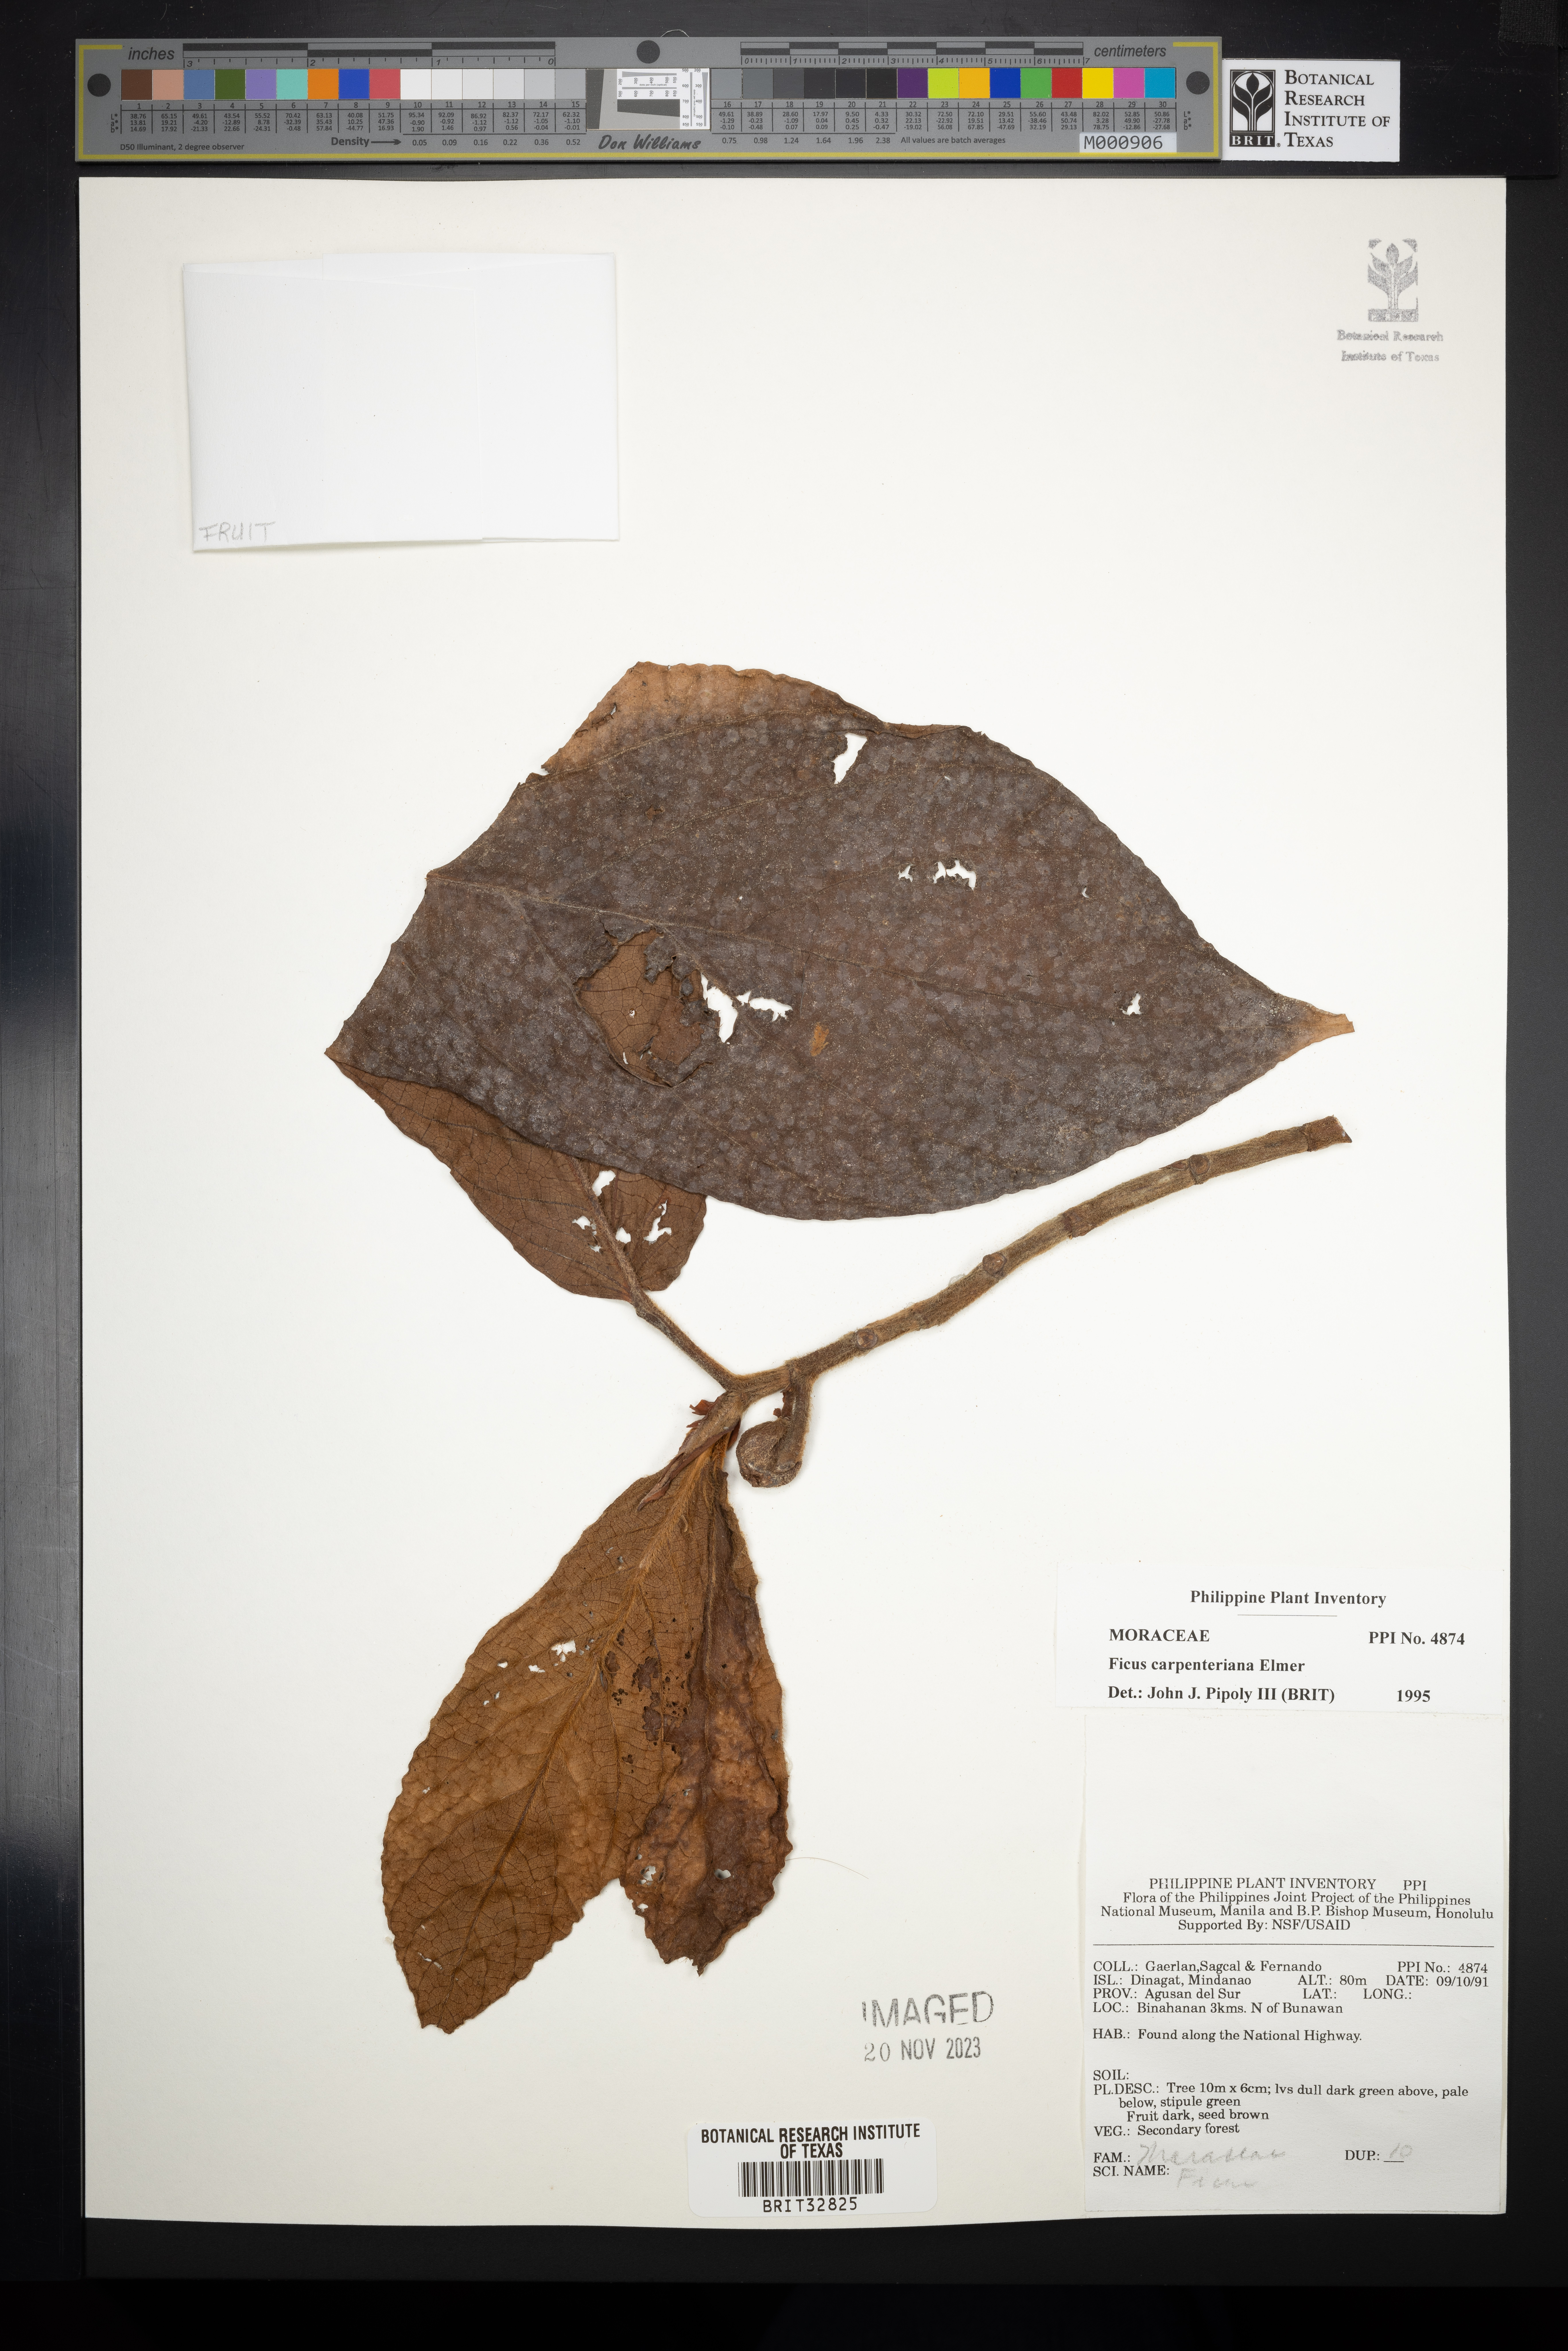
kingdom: Plantae
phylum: Tracheophyta
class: Magnoliopsida
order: Rosales
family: Moraceae
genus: Ficus
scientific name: Ficus carpenteriana
